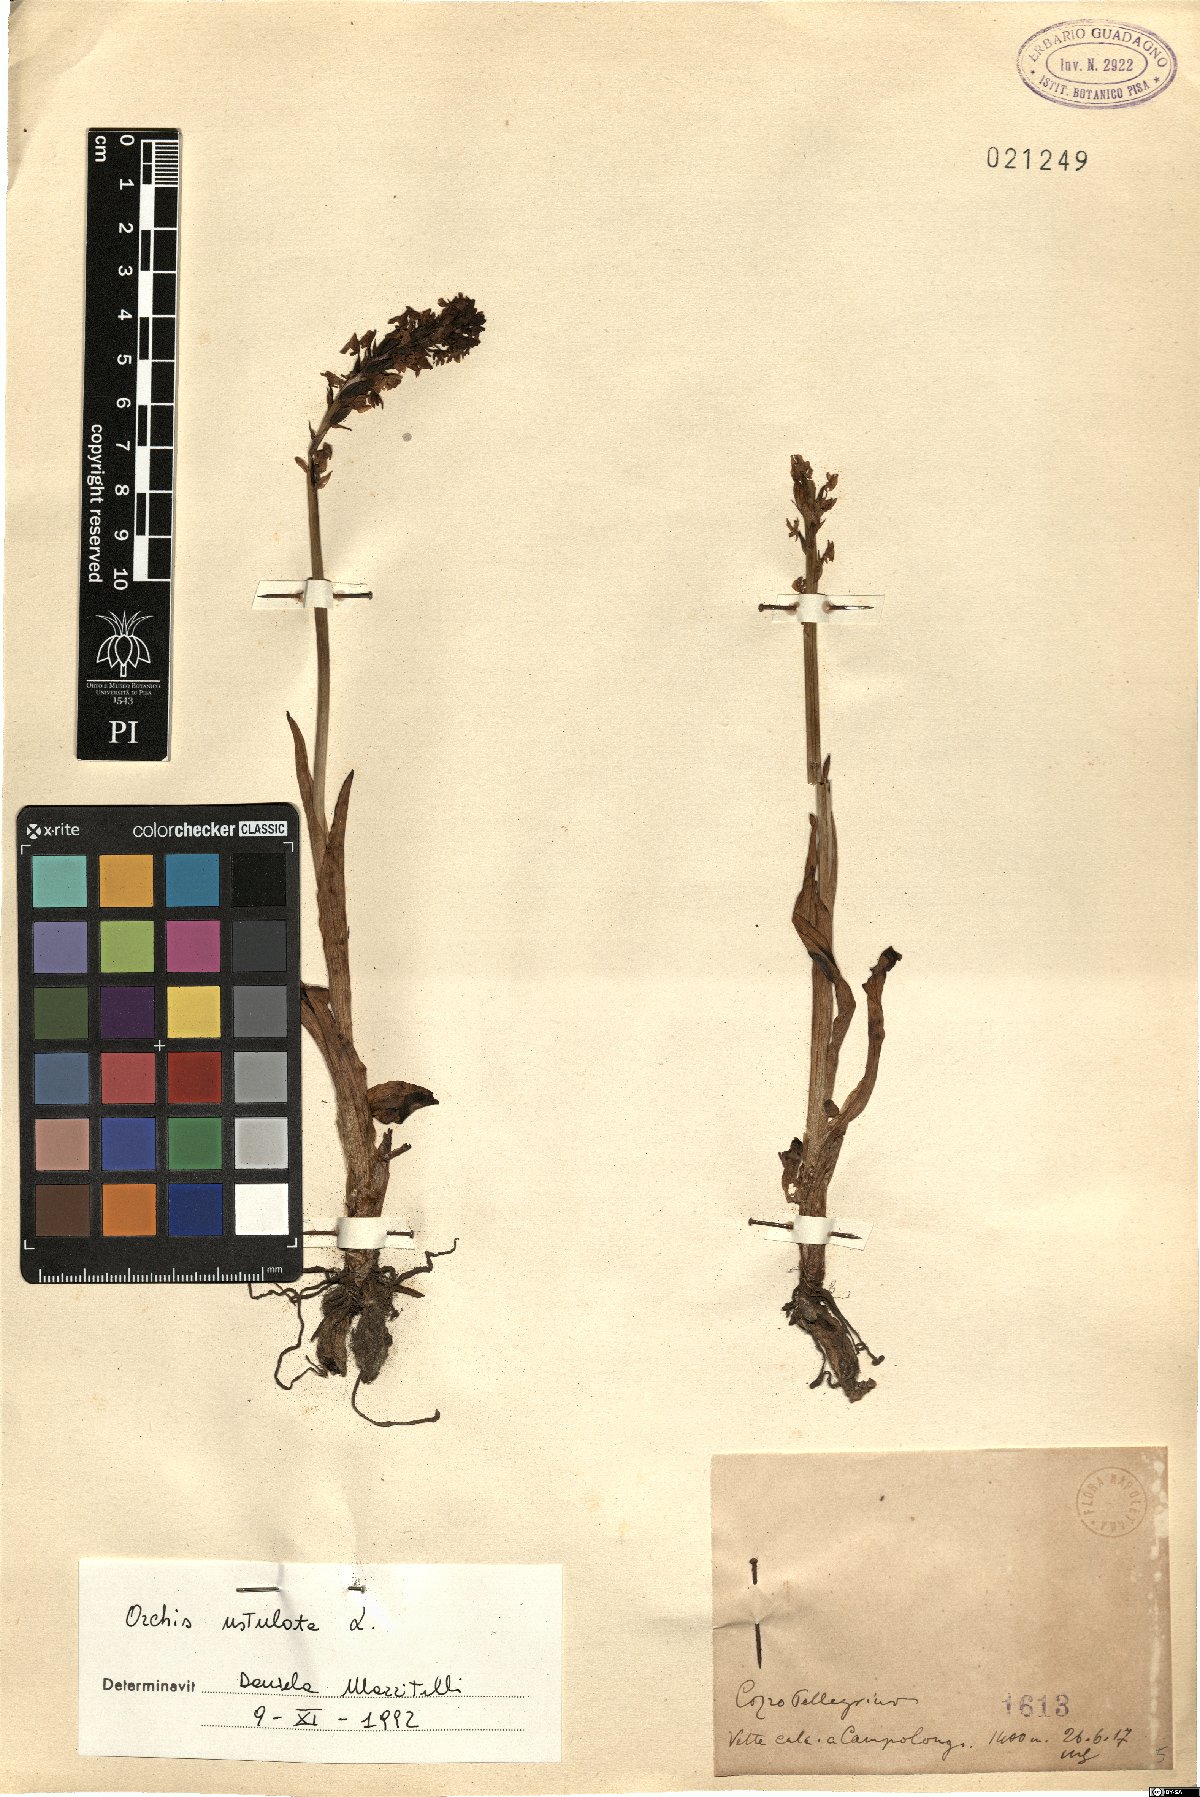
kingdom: Plantae
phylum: Tracheophyta
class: Liliopsida
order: Asparagales
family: Orchidaceae
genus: Neotinea
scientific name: Neotinea ustulata
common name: Burnt orchid
